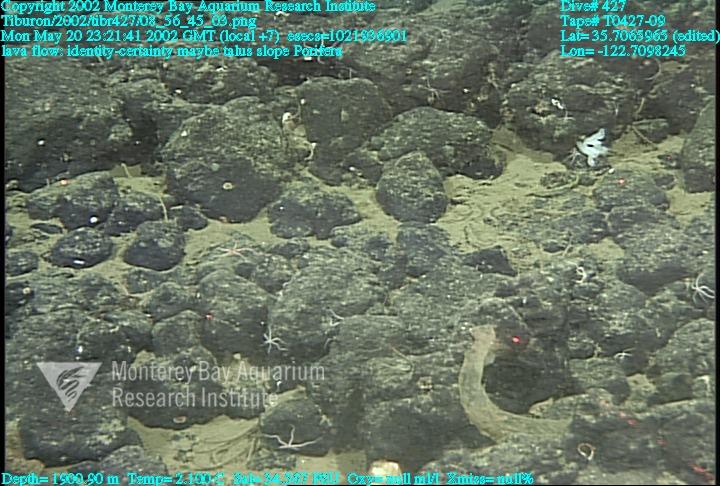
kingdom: Animalia
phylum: Porifera
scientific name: Porifera
